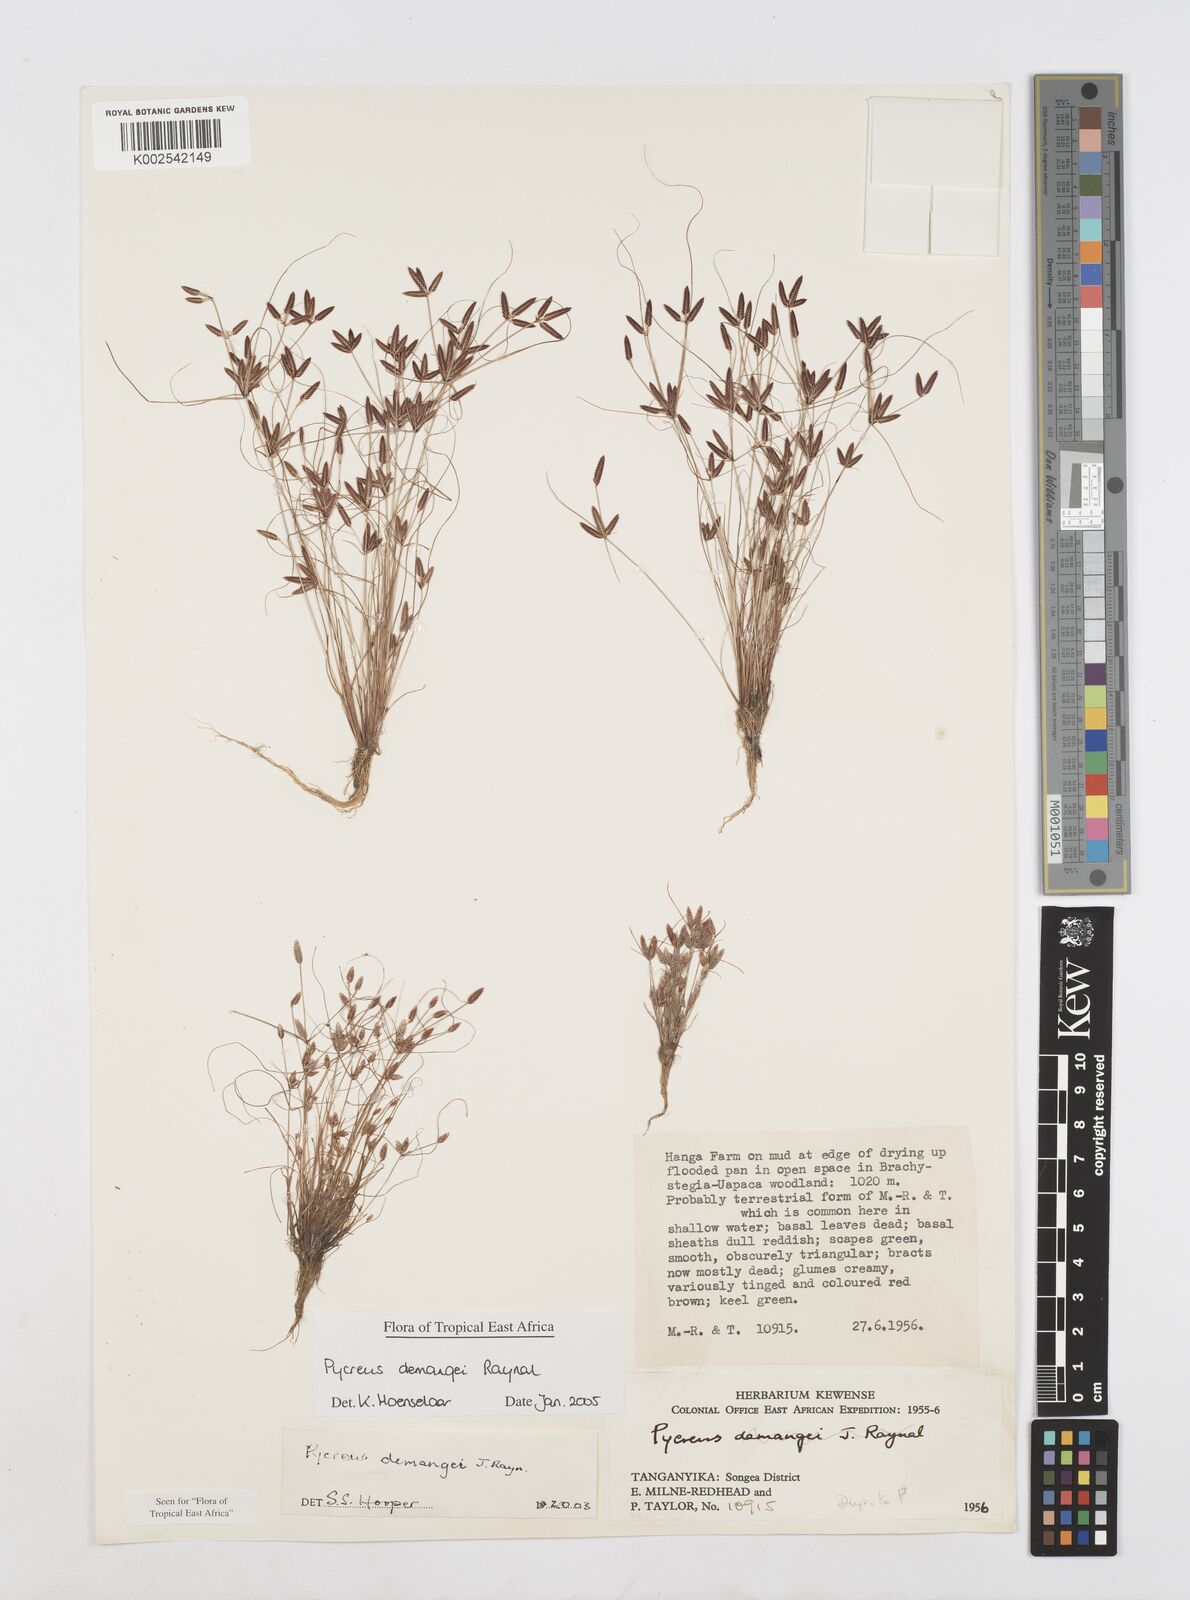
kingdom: Plantae
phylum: Tracheophyta
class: Liliopsida
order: Poales
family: Cyperaceae
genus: Cyperus
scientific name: Cyperus demangei
